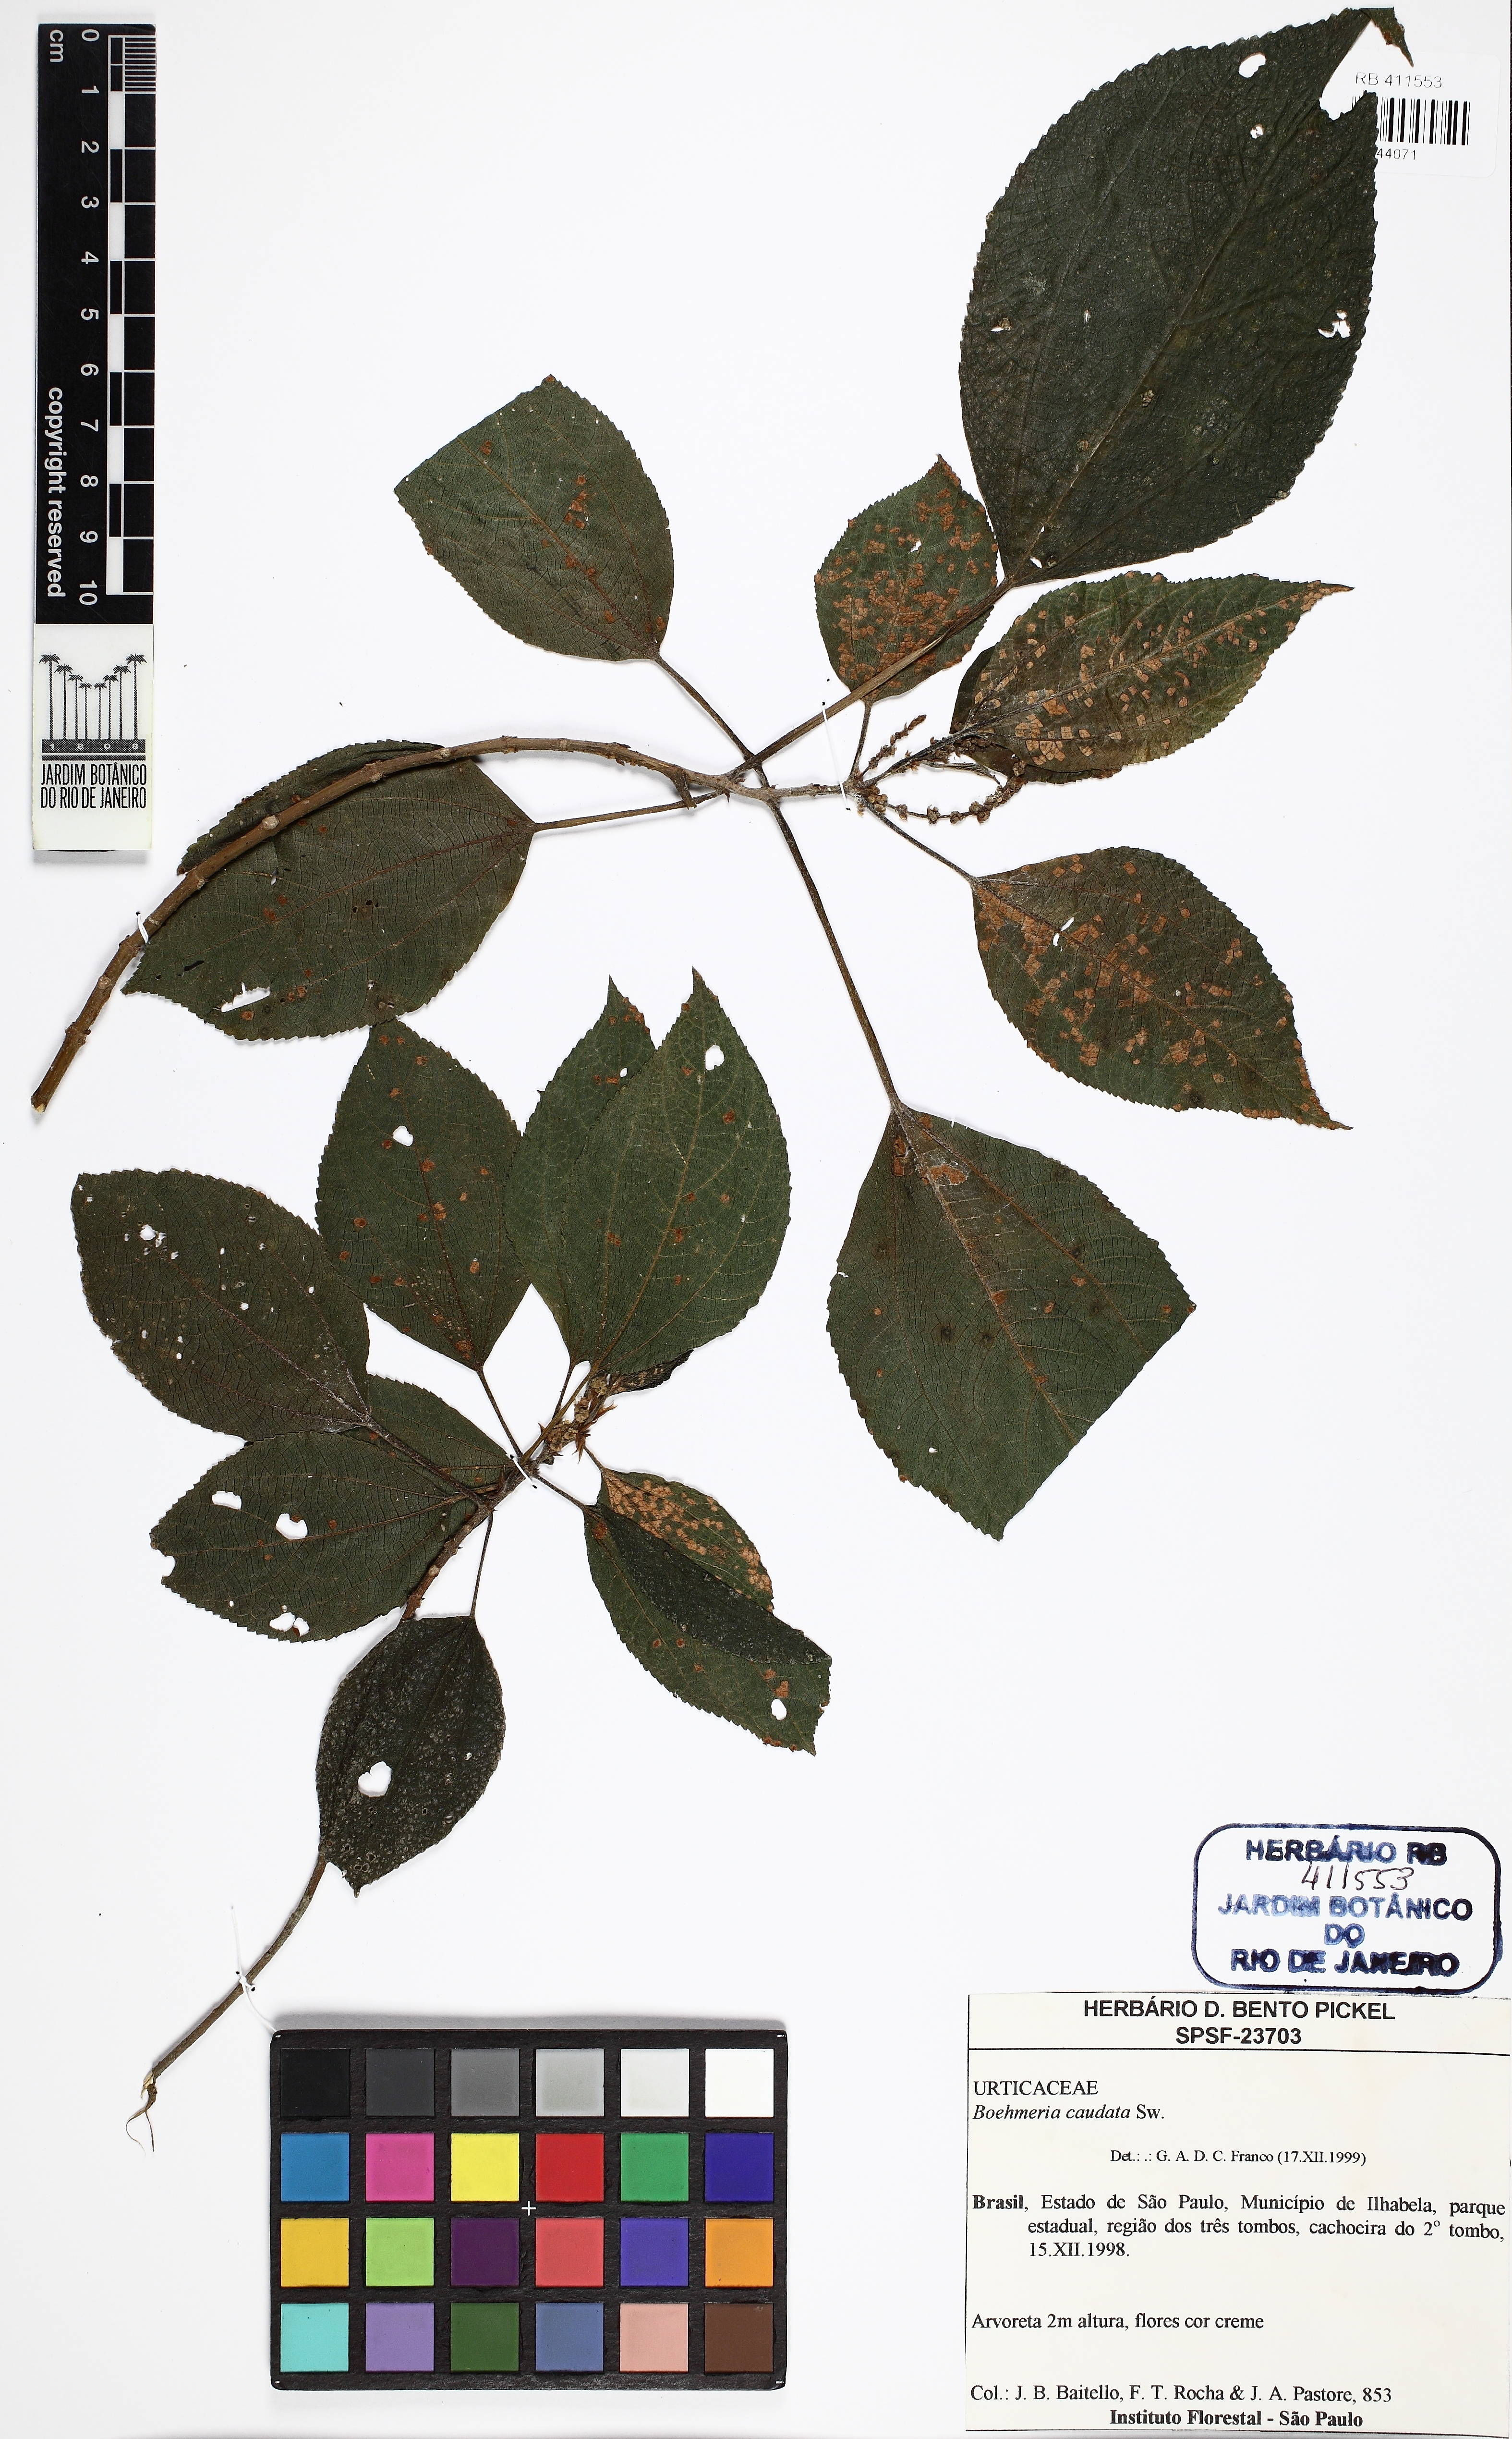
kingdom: Plantae
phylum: Tracheophyta
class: Magnoliopsida
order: Rosales
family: Urticaceae
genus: Boehmeria
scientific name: Boehmeria caudata
